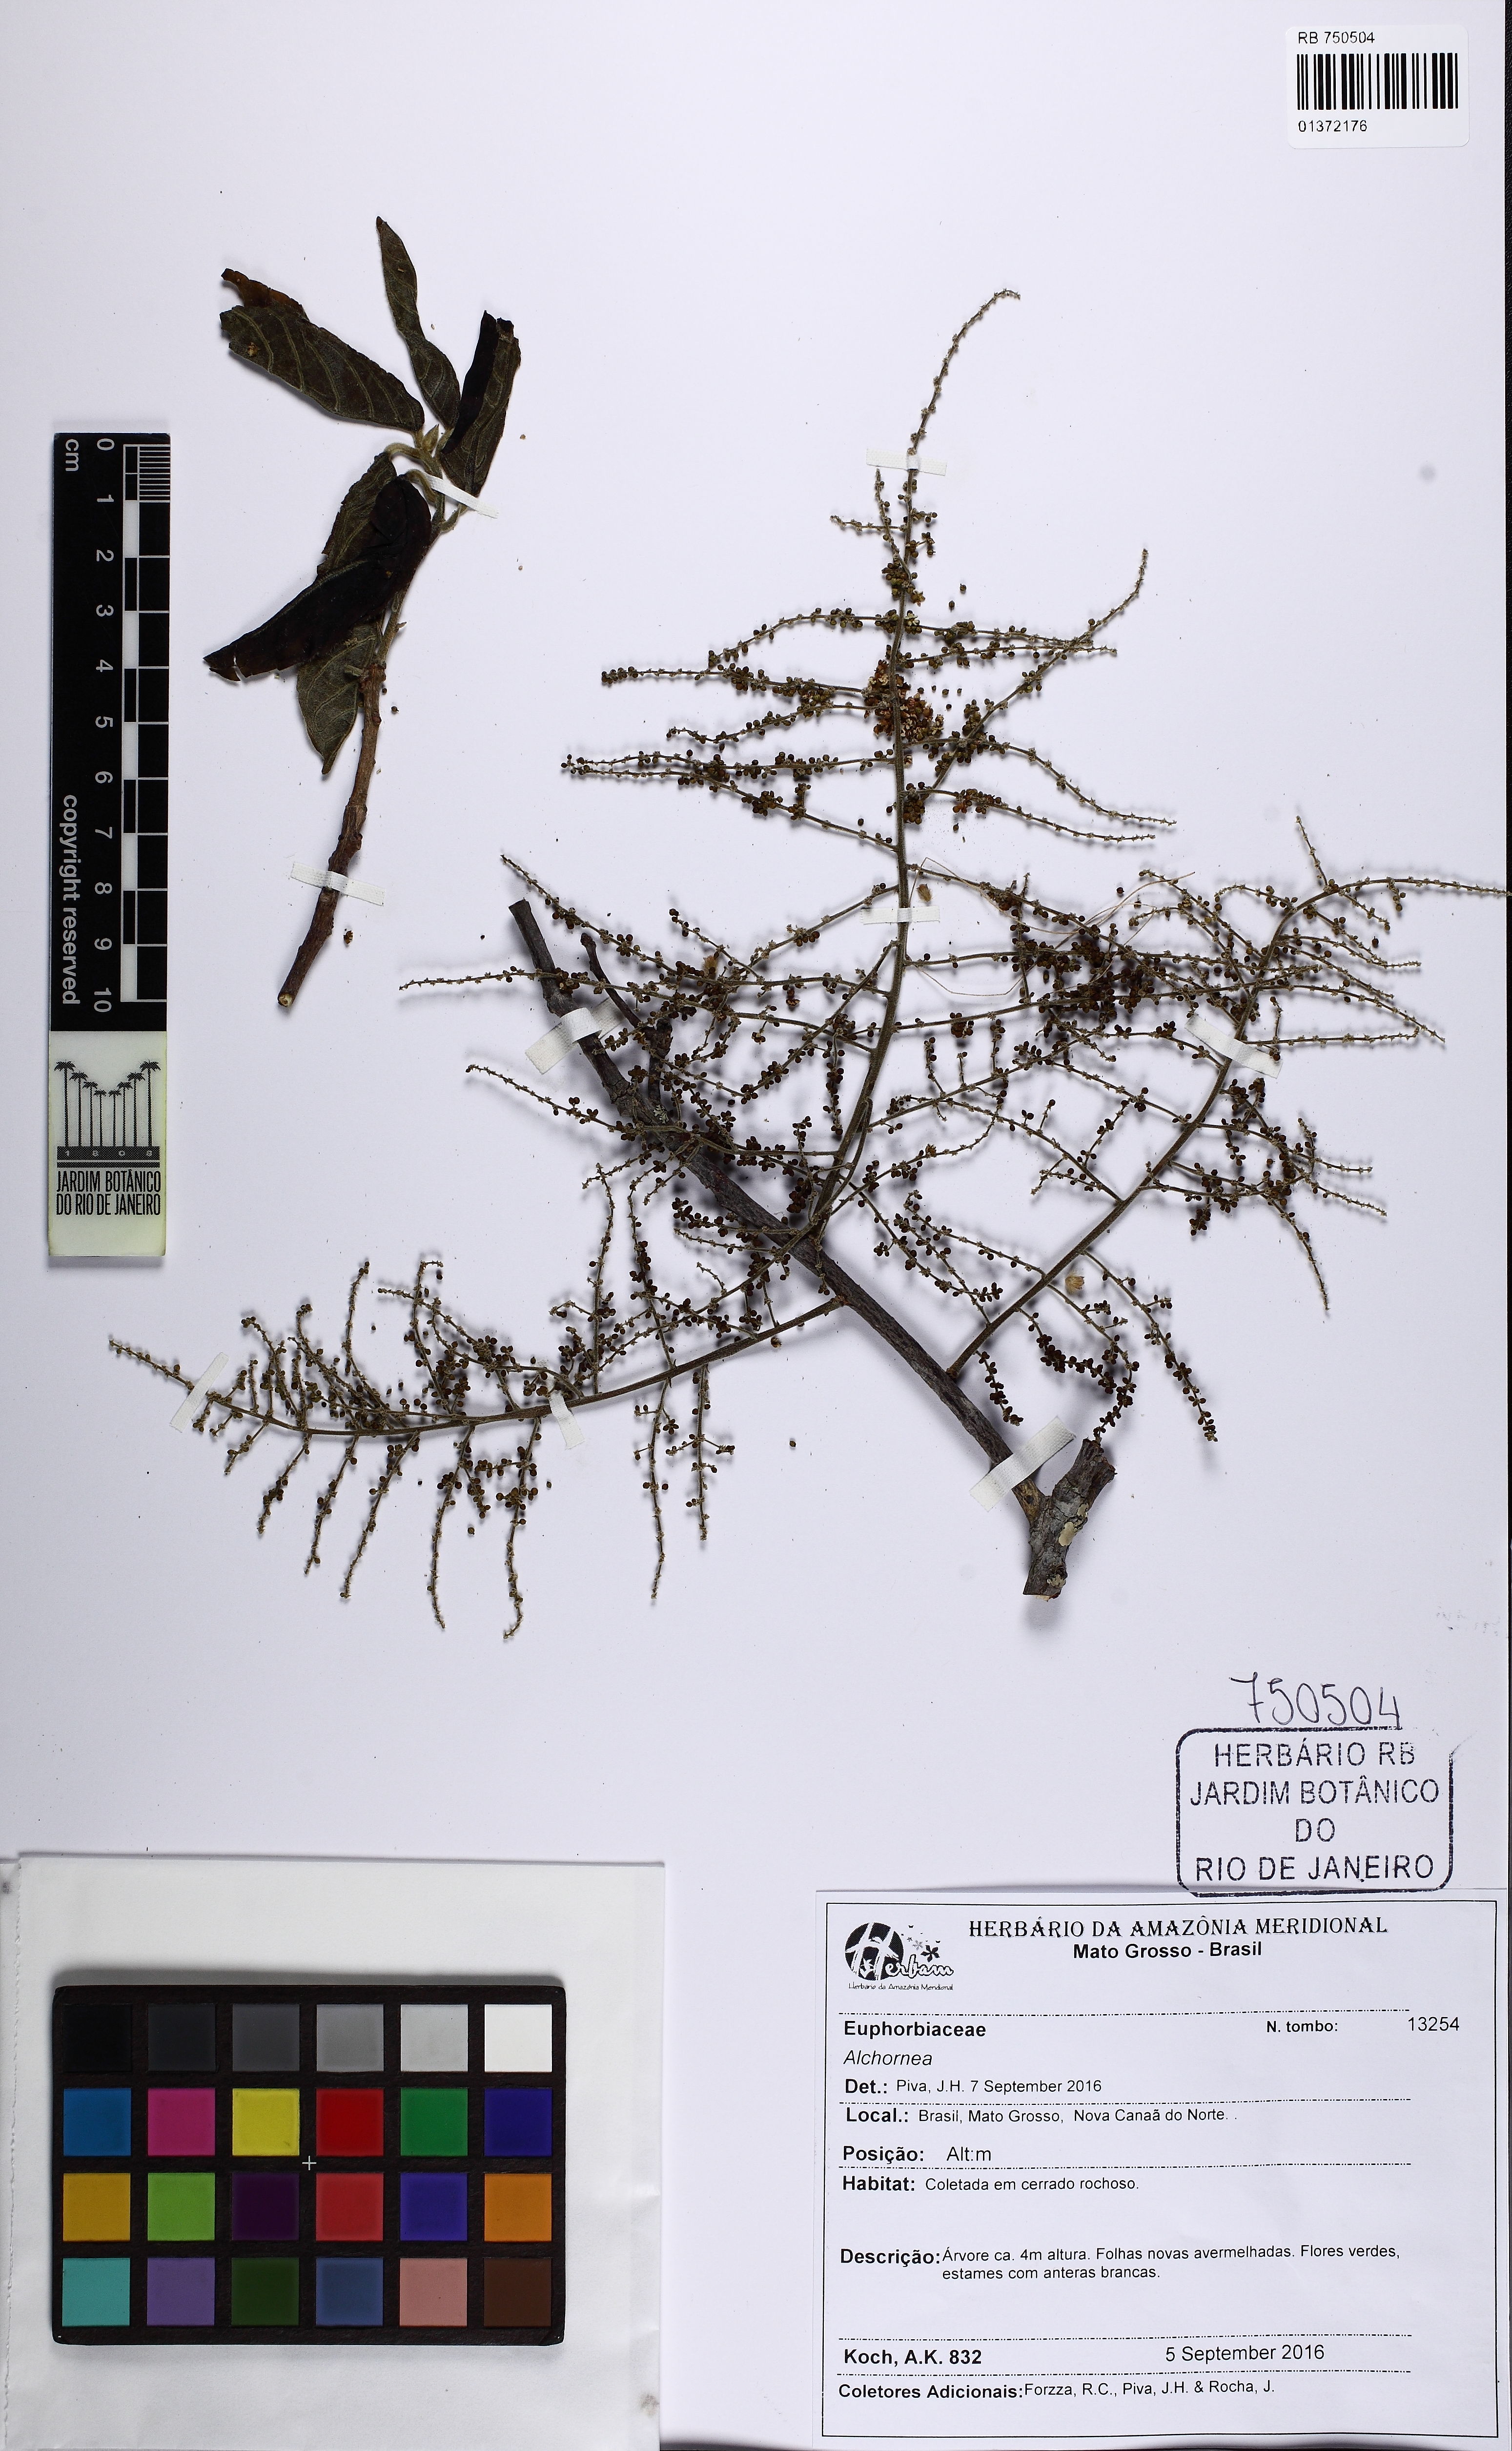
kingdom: Plantae
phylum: Tracheophyta
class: Magnoliopsida
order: Malpighiales
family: Euphorbiaceae
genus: Alchornea
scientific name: Alchornea
